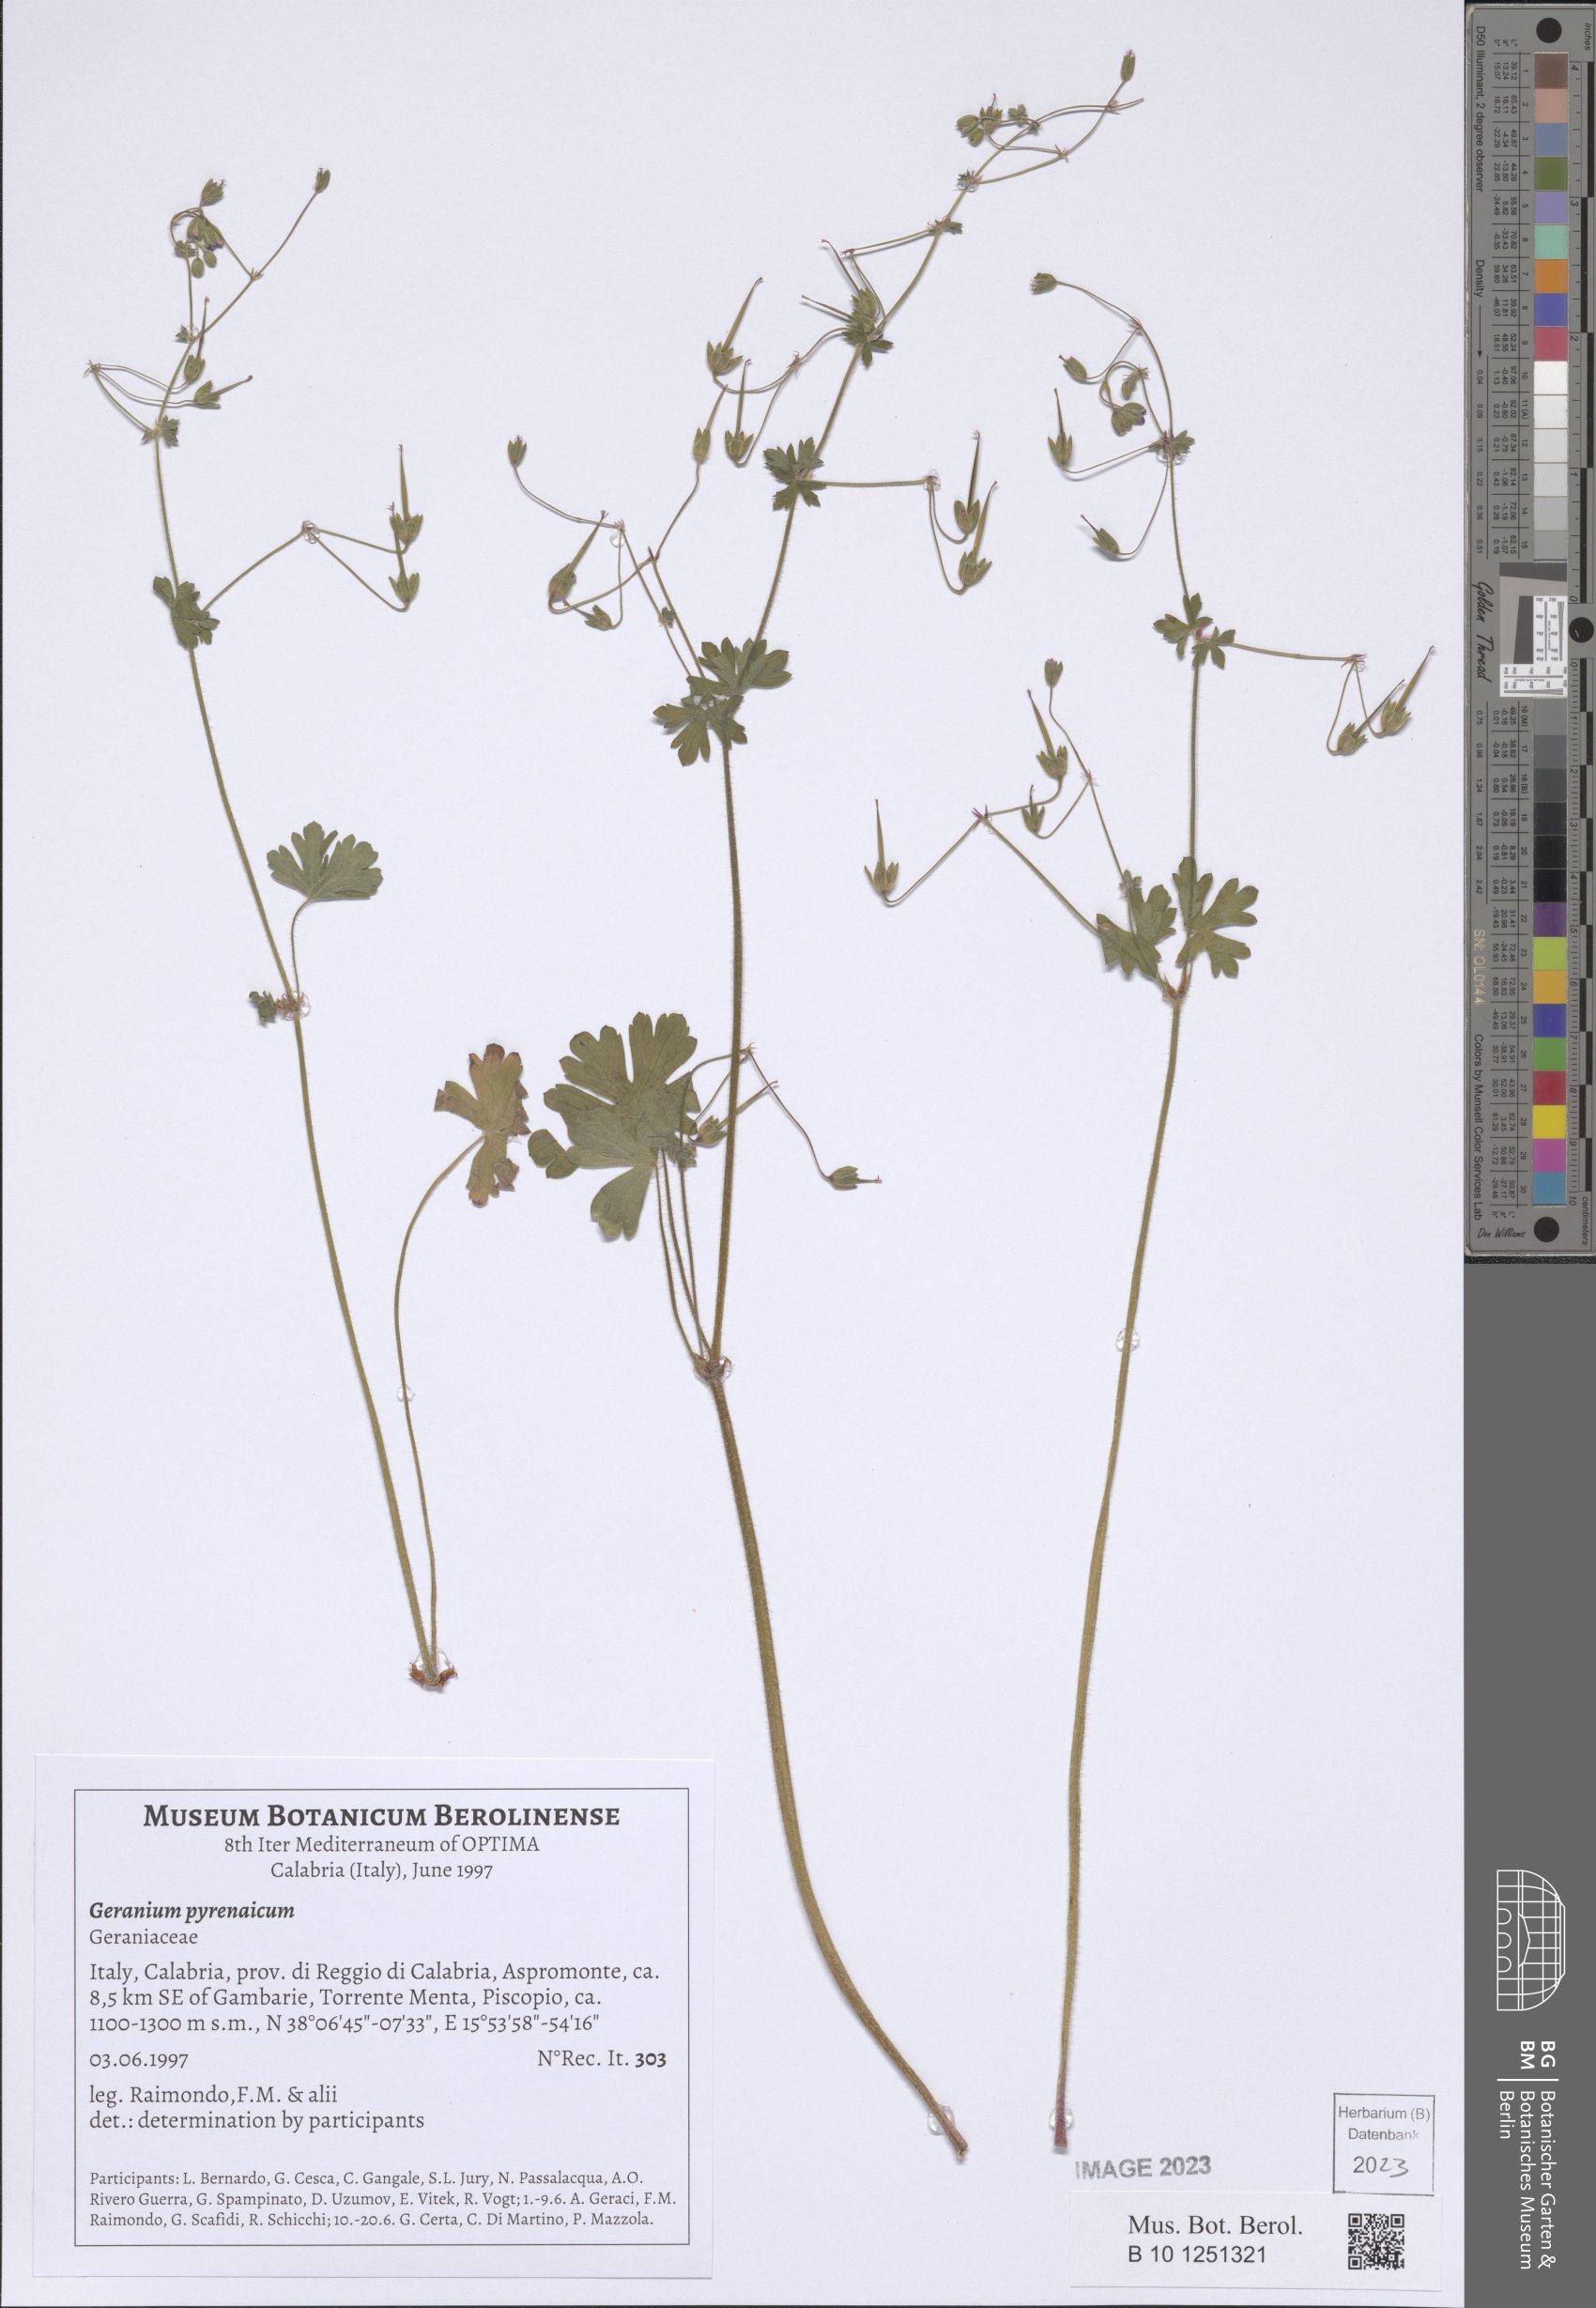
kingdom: Plantae
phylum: Tracheophyta
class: Magnoliopsida
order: Geraniales
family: Geraniaceae
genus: Geranium
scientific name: Geranium pyrenaicum
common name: Hedgerow crane's-bill
